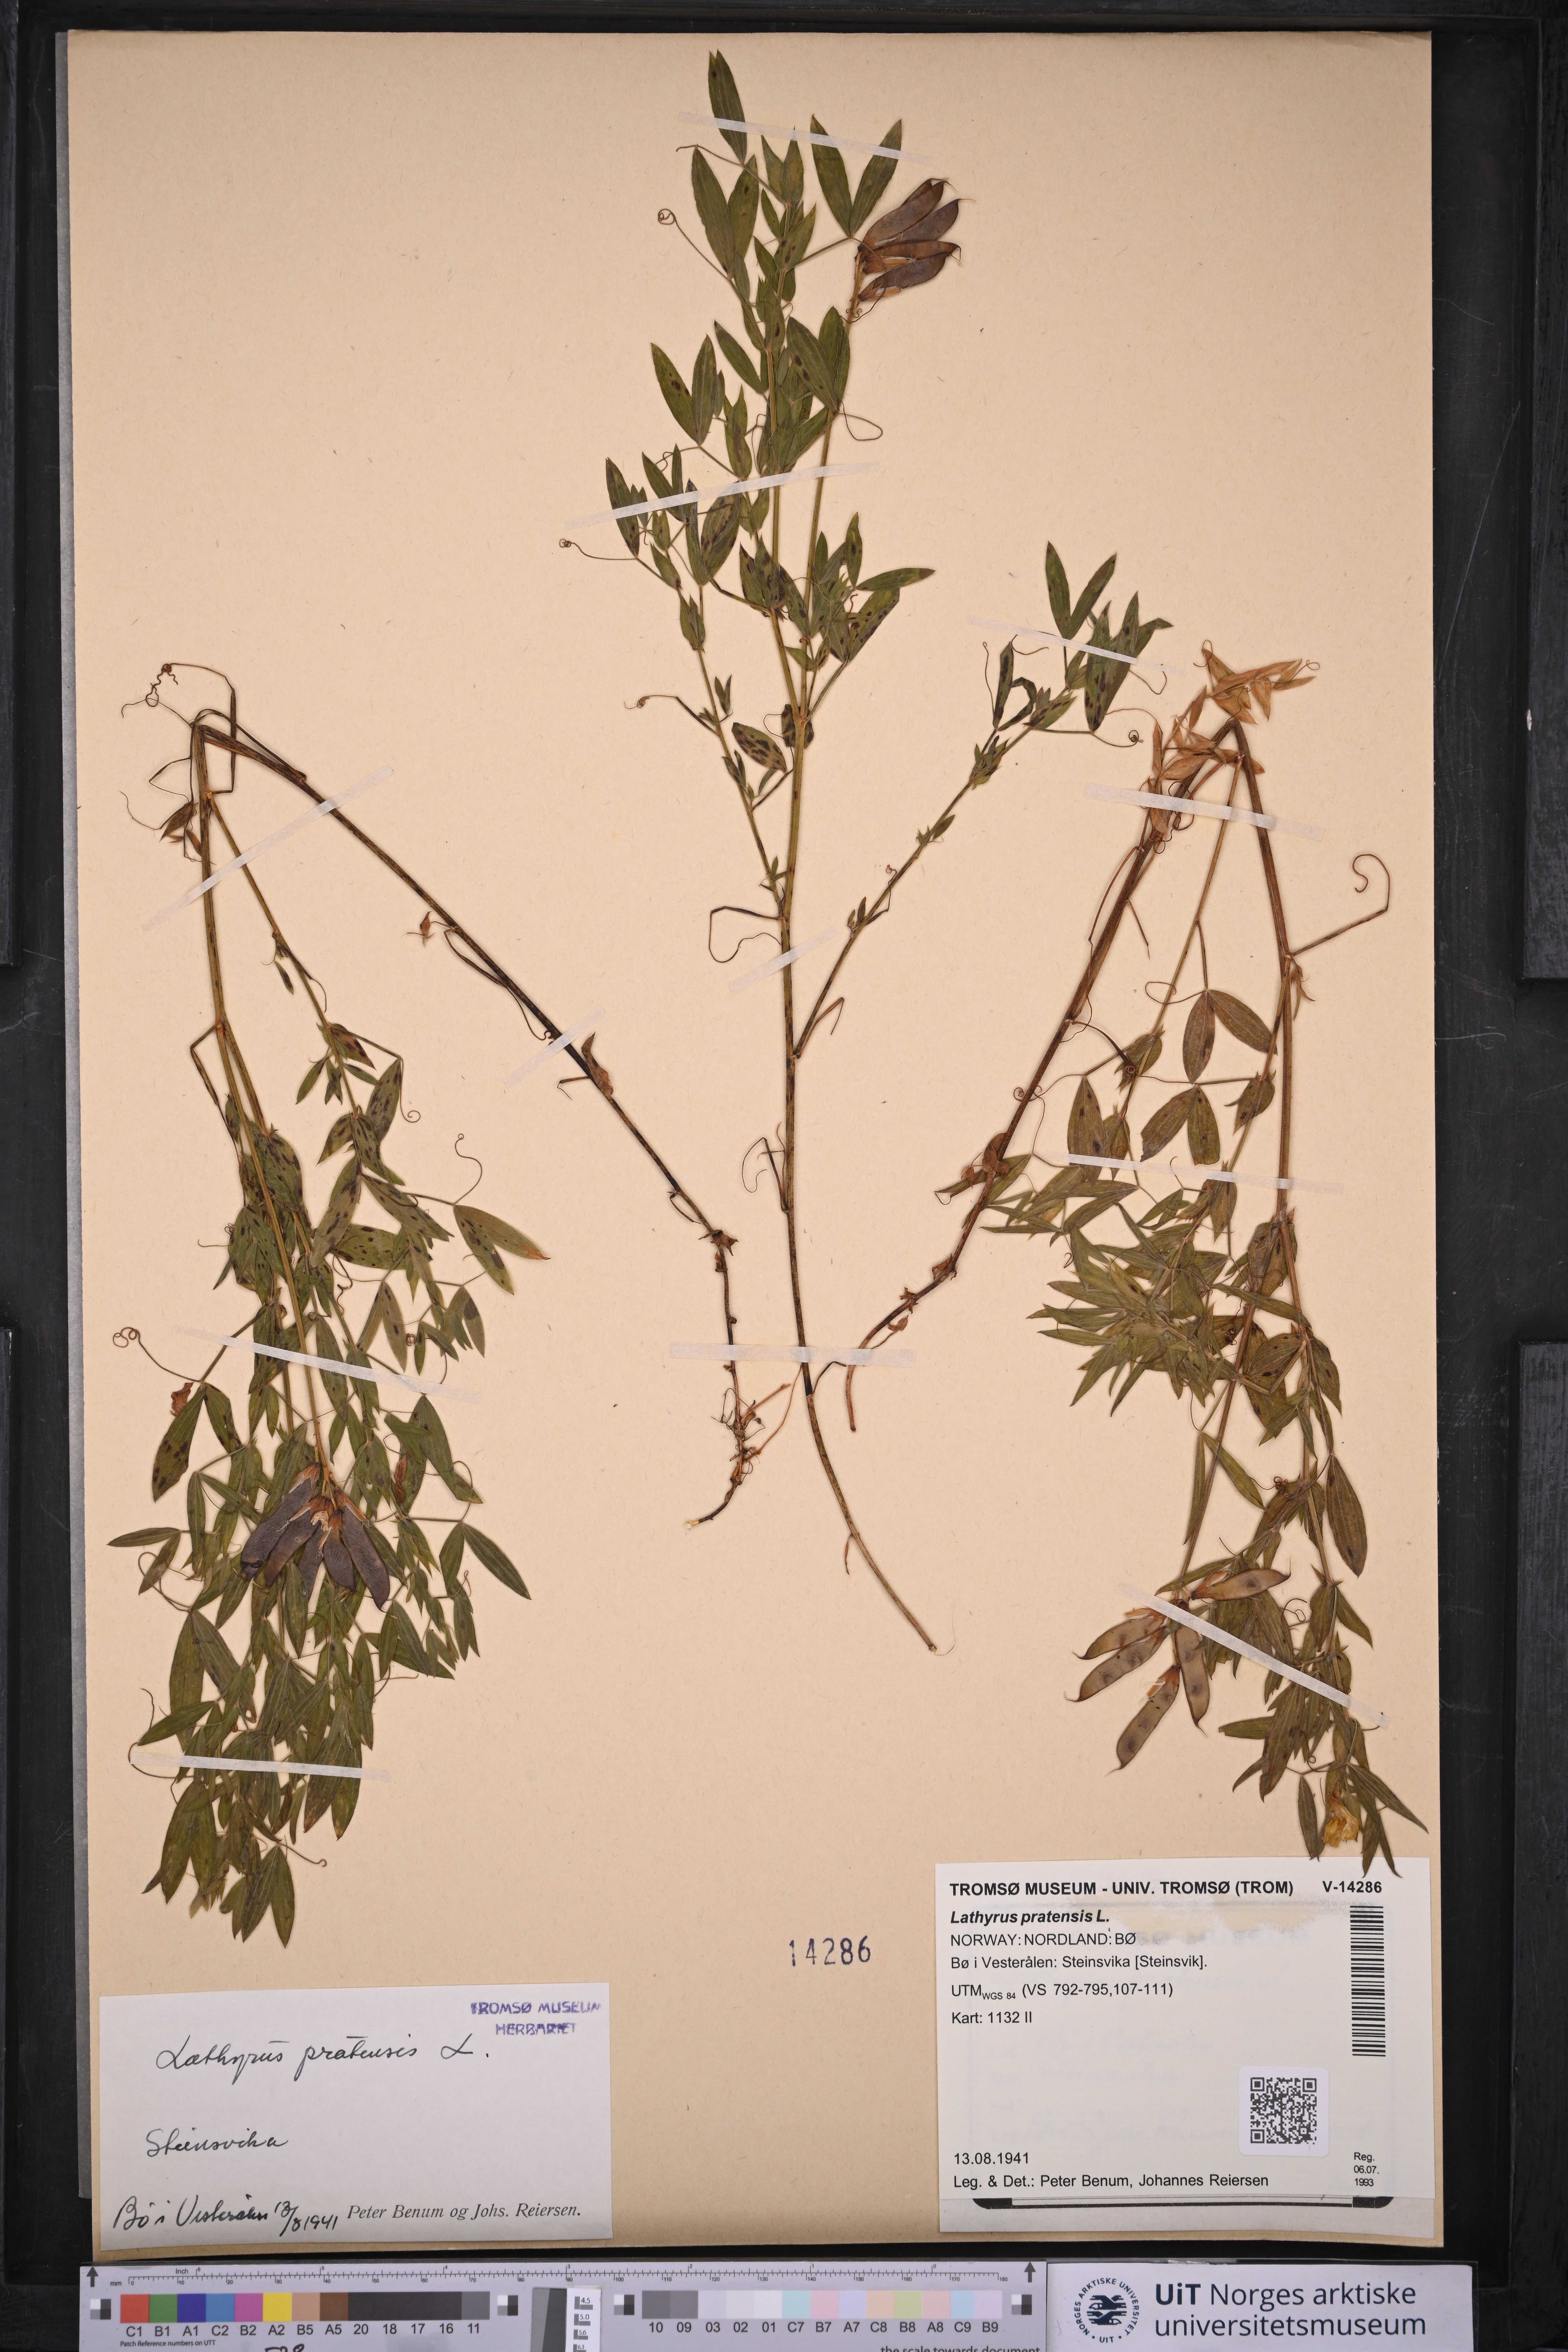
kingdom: Plantae
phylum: Tracheophyta
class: Magnoliopsida
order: Fabales
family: Fabaceae
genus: Lathyrus
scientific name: Lathyrus pratensis
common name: Meadow vetchling
